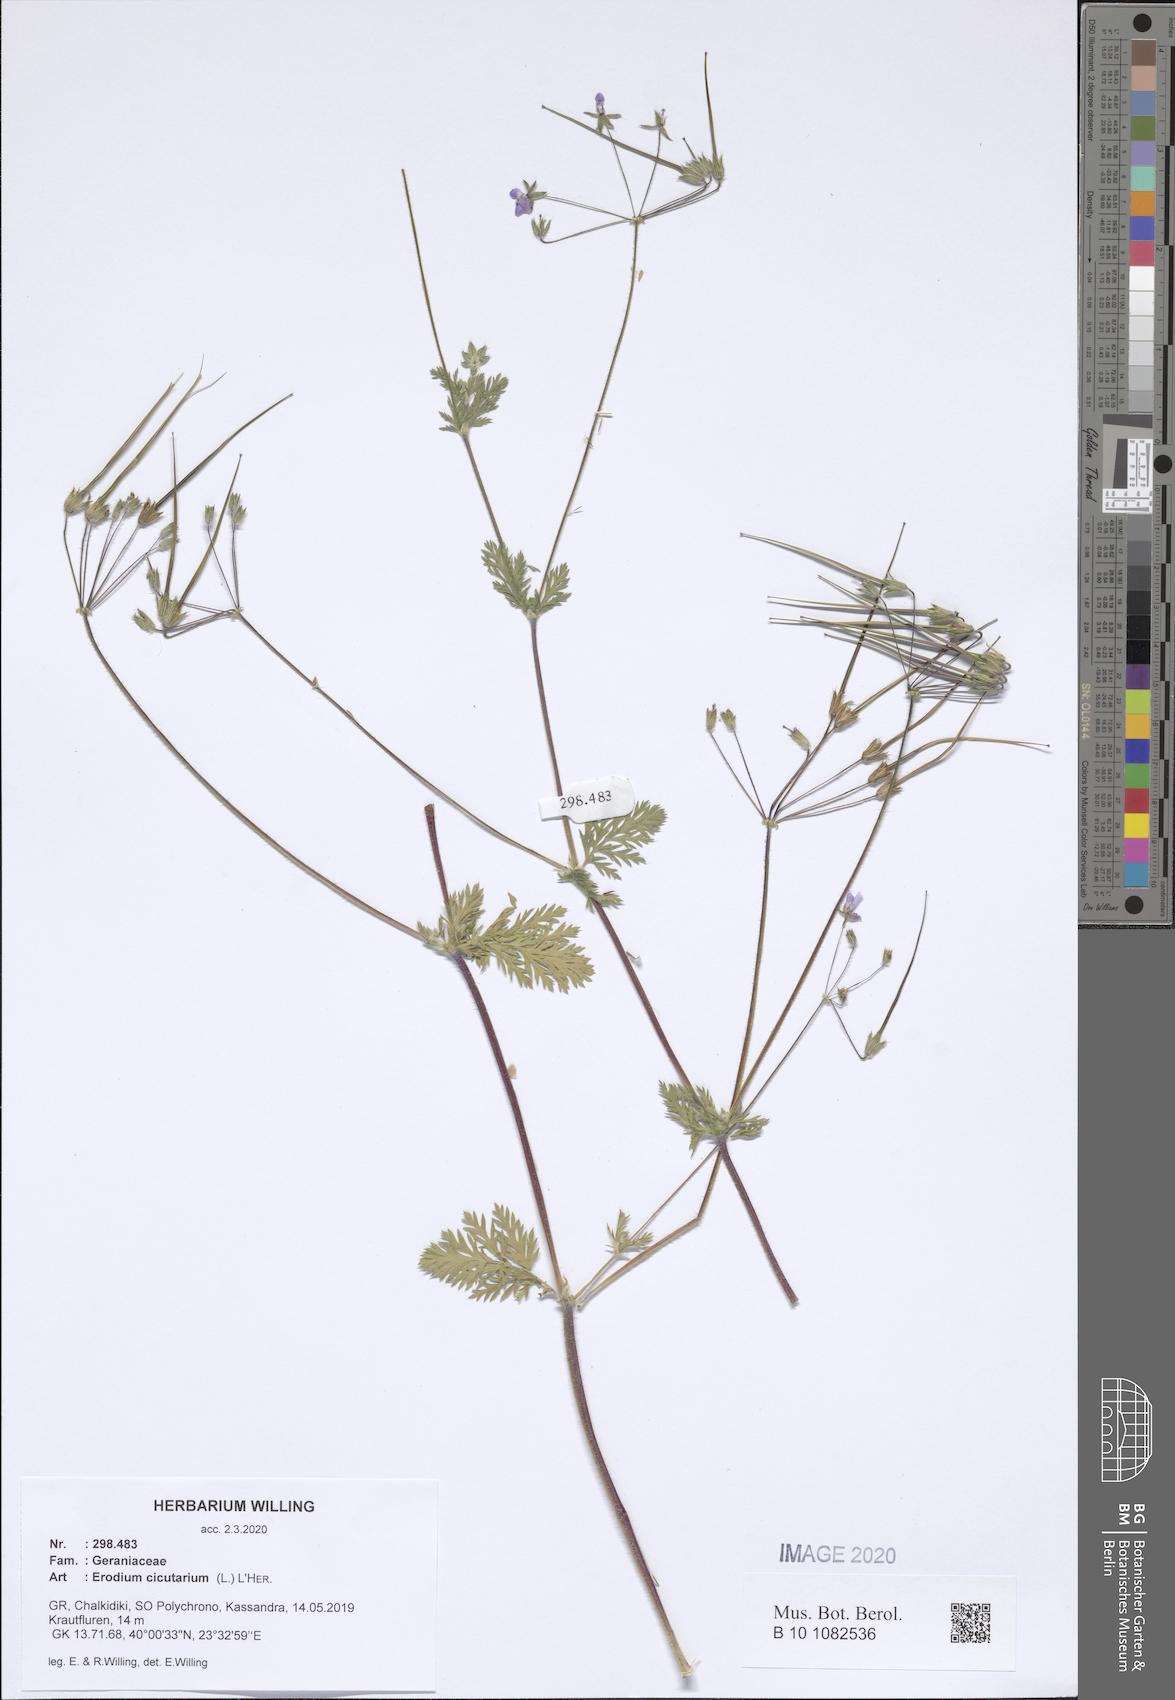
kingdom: Plantae
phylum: Tracheophyta
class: Magnoliopsida
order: Geraniales
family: Geraniaceae
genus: Erodium
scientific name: Erodium cicutarium
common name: Common stork's-bill
